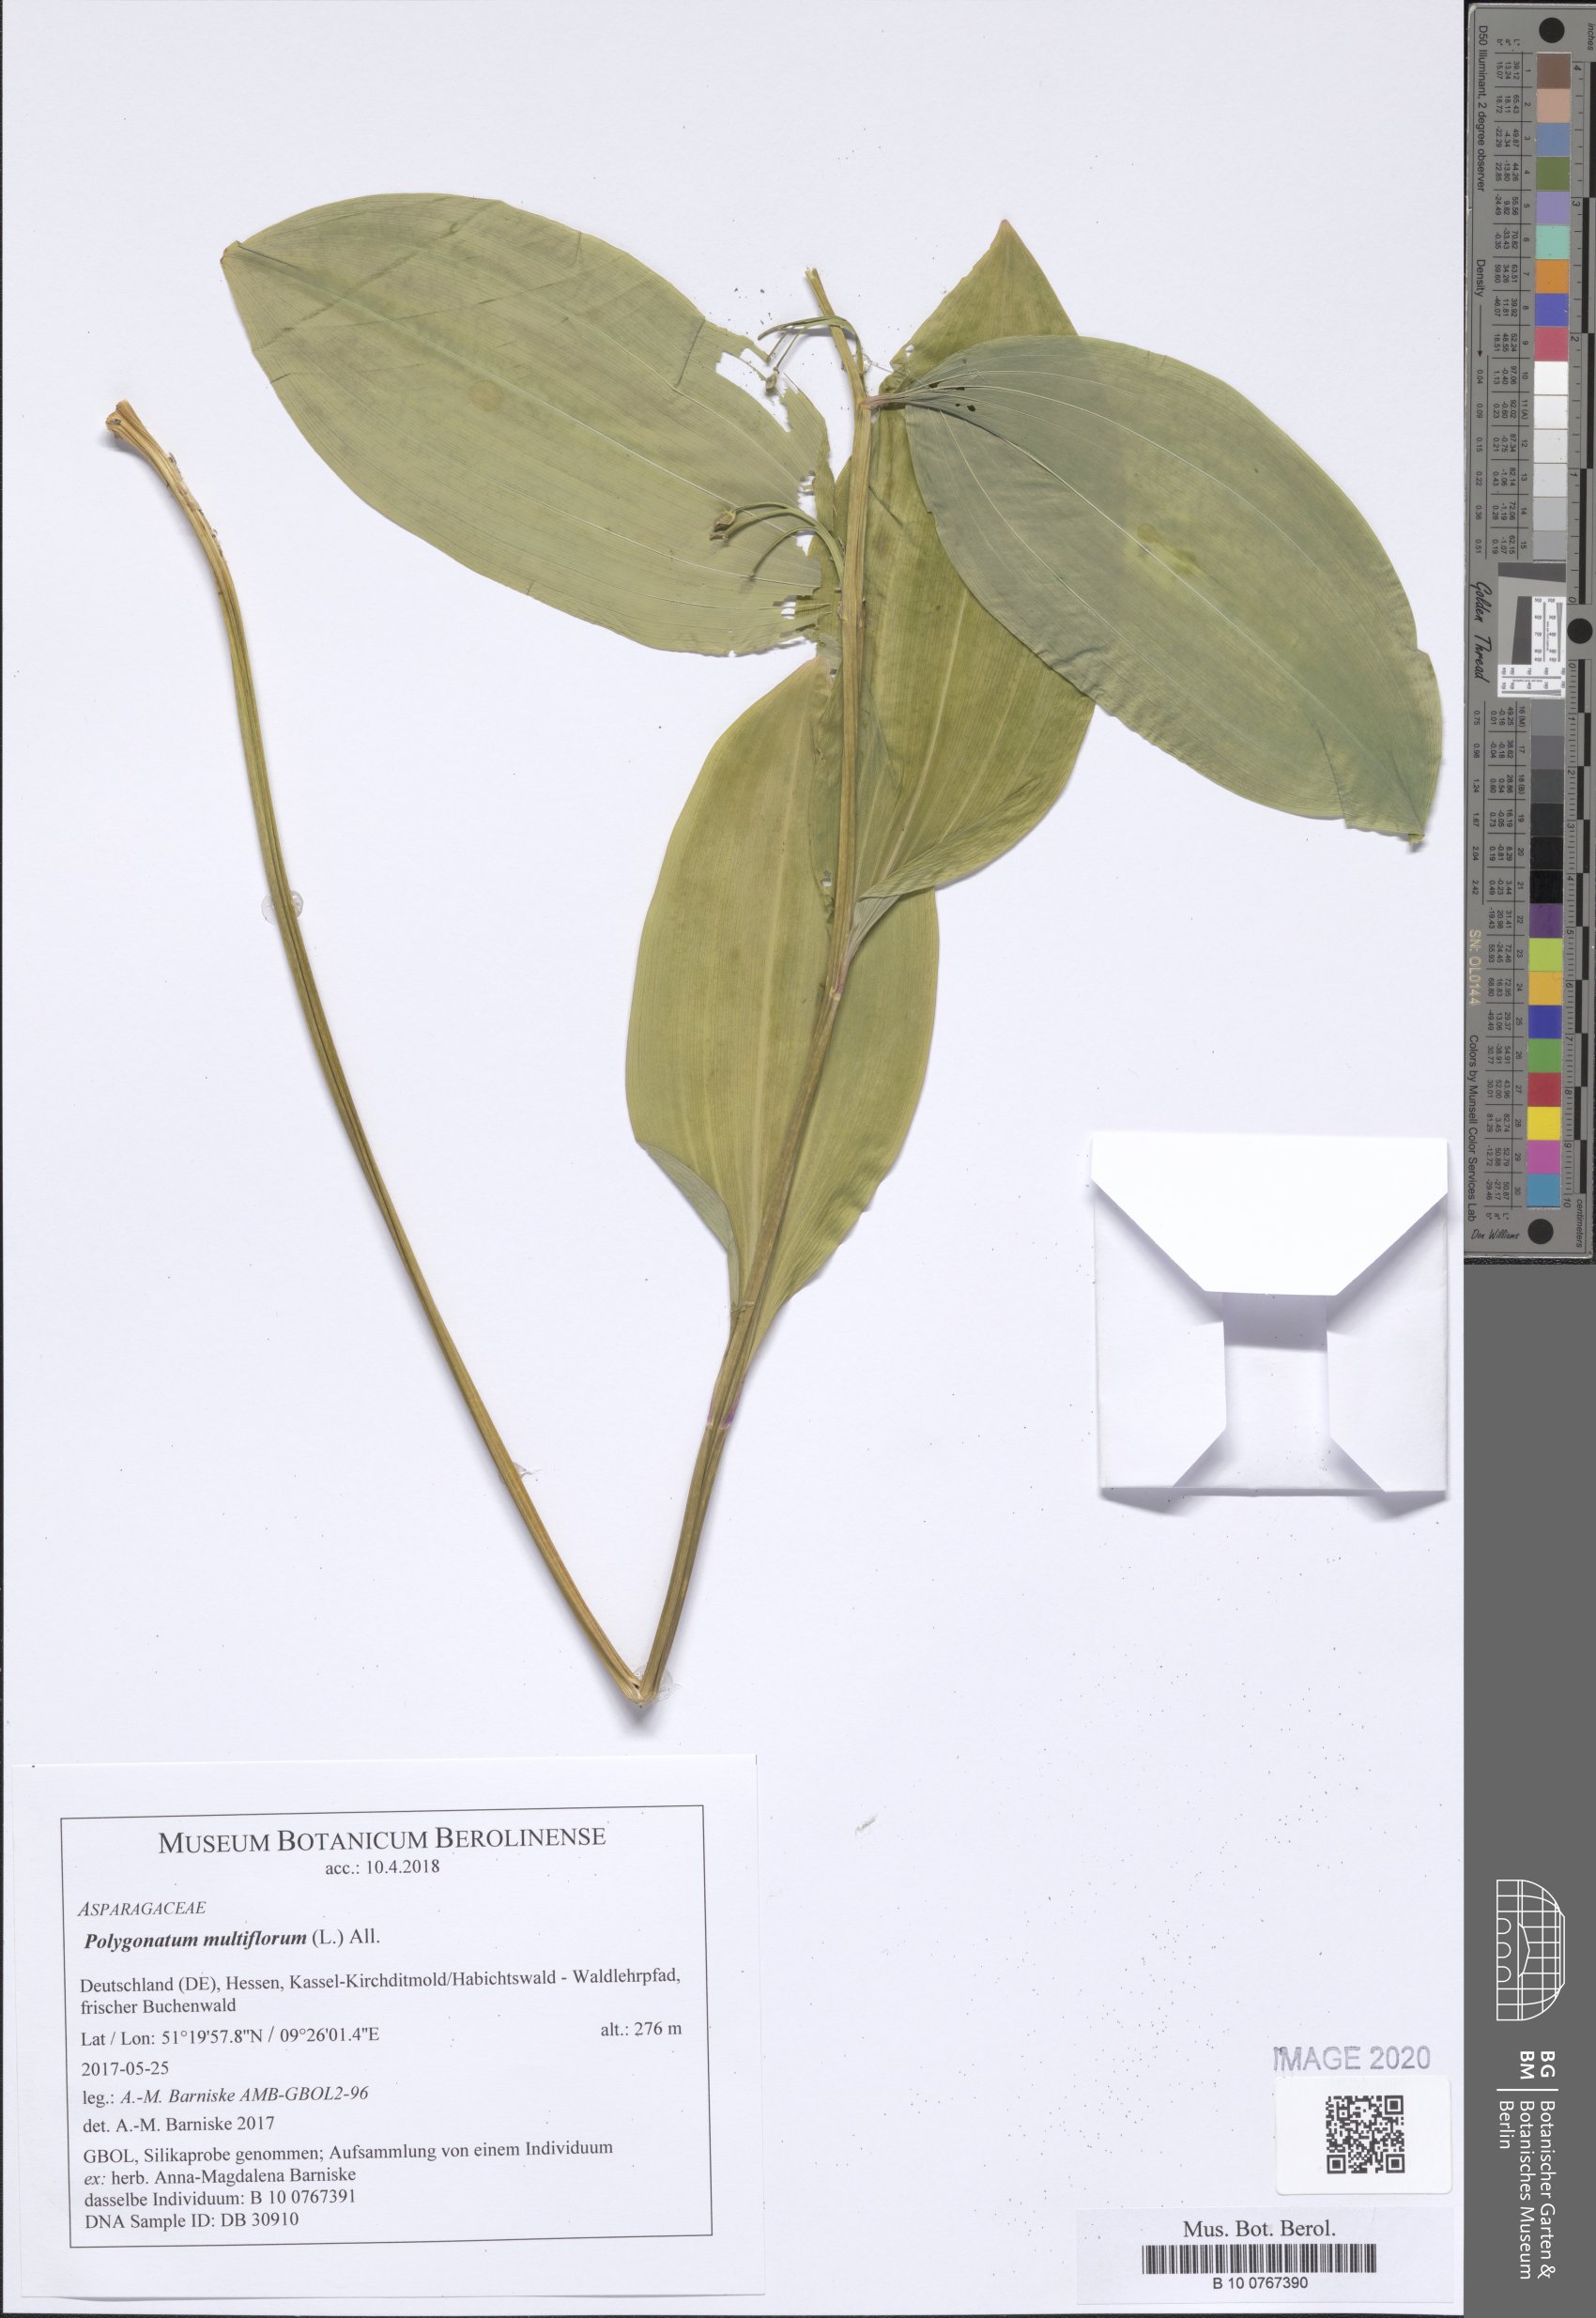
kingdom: Plantae
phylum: Tracheophyta
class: Liliopsida
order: Asparagales
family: Asparagaceae
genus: Polygonatum
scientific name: Polygonatum multiflorum
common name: Solomon's-seal
